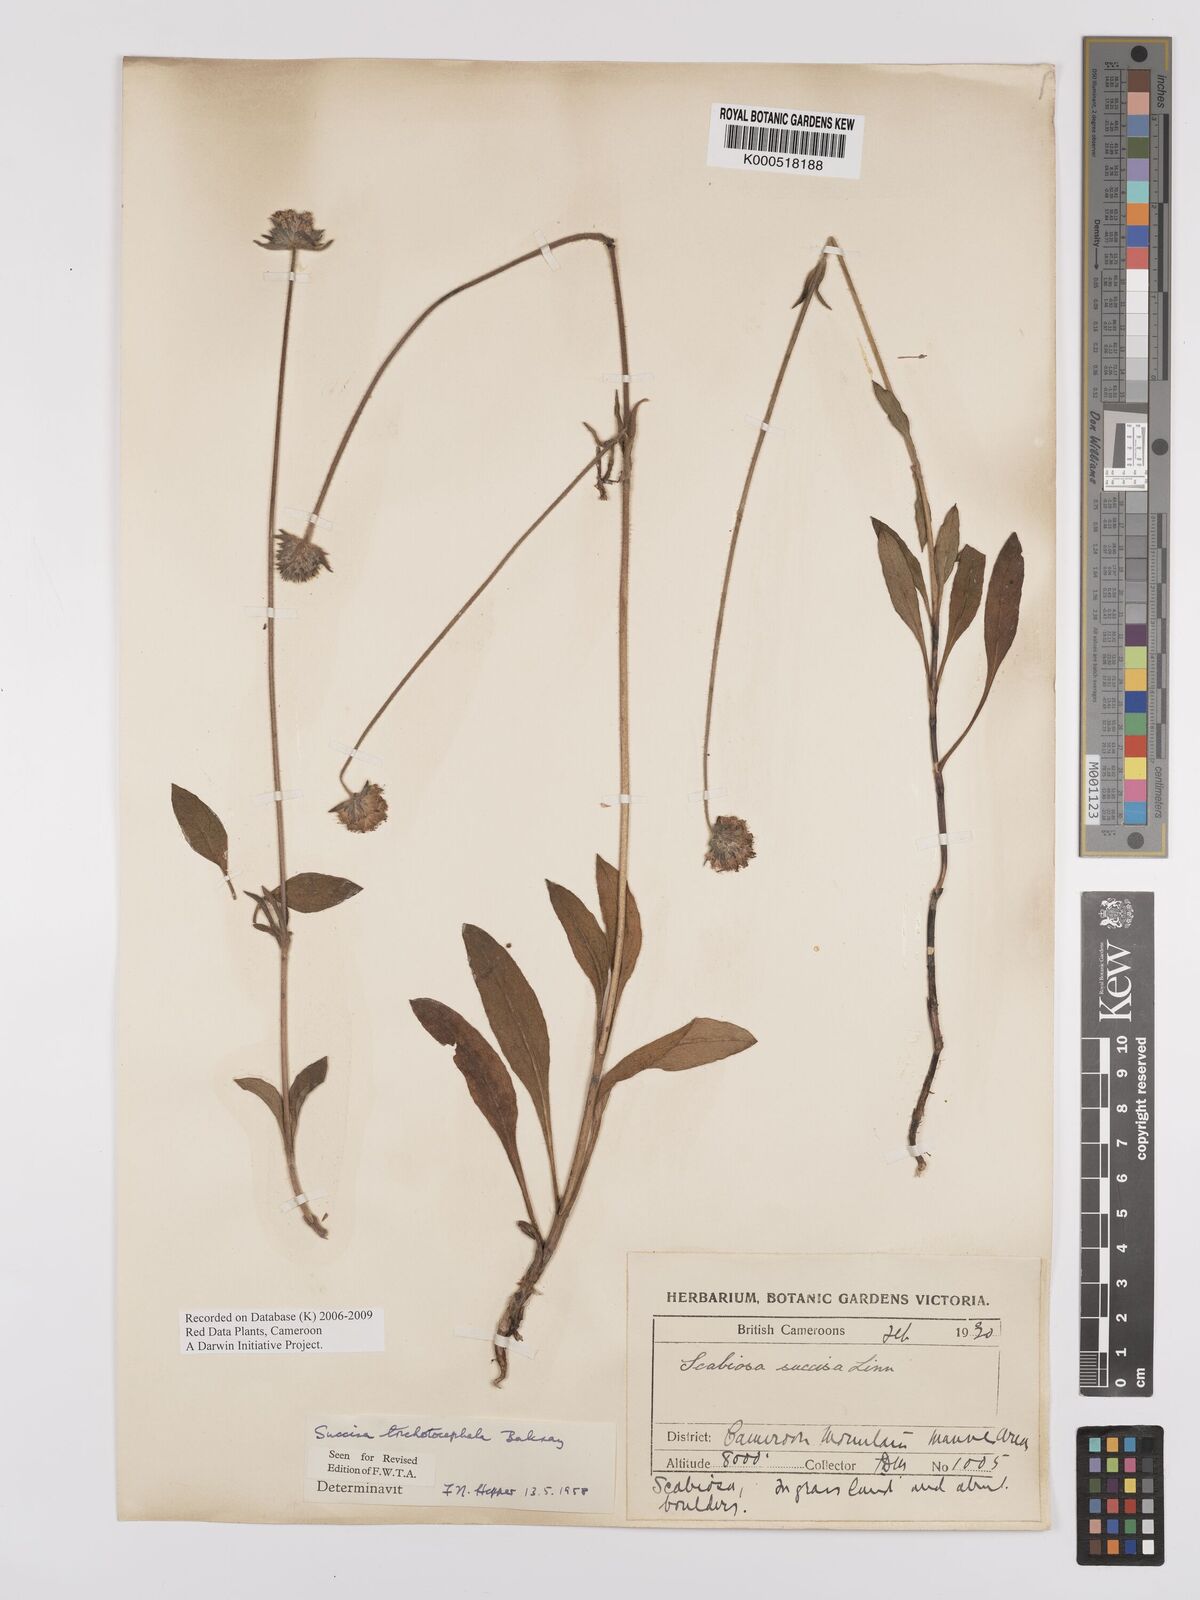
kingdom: Plantae
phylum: Tracheophyta
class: Magnoliopsida
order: Dipsacales
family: Caprifoliaceae
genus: Succisa
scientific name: Succisa trichotocephala
